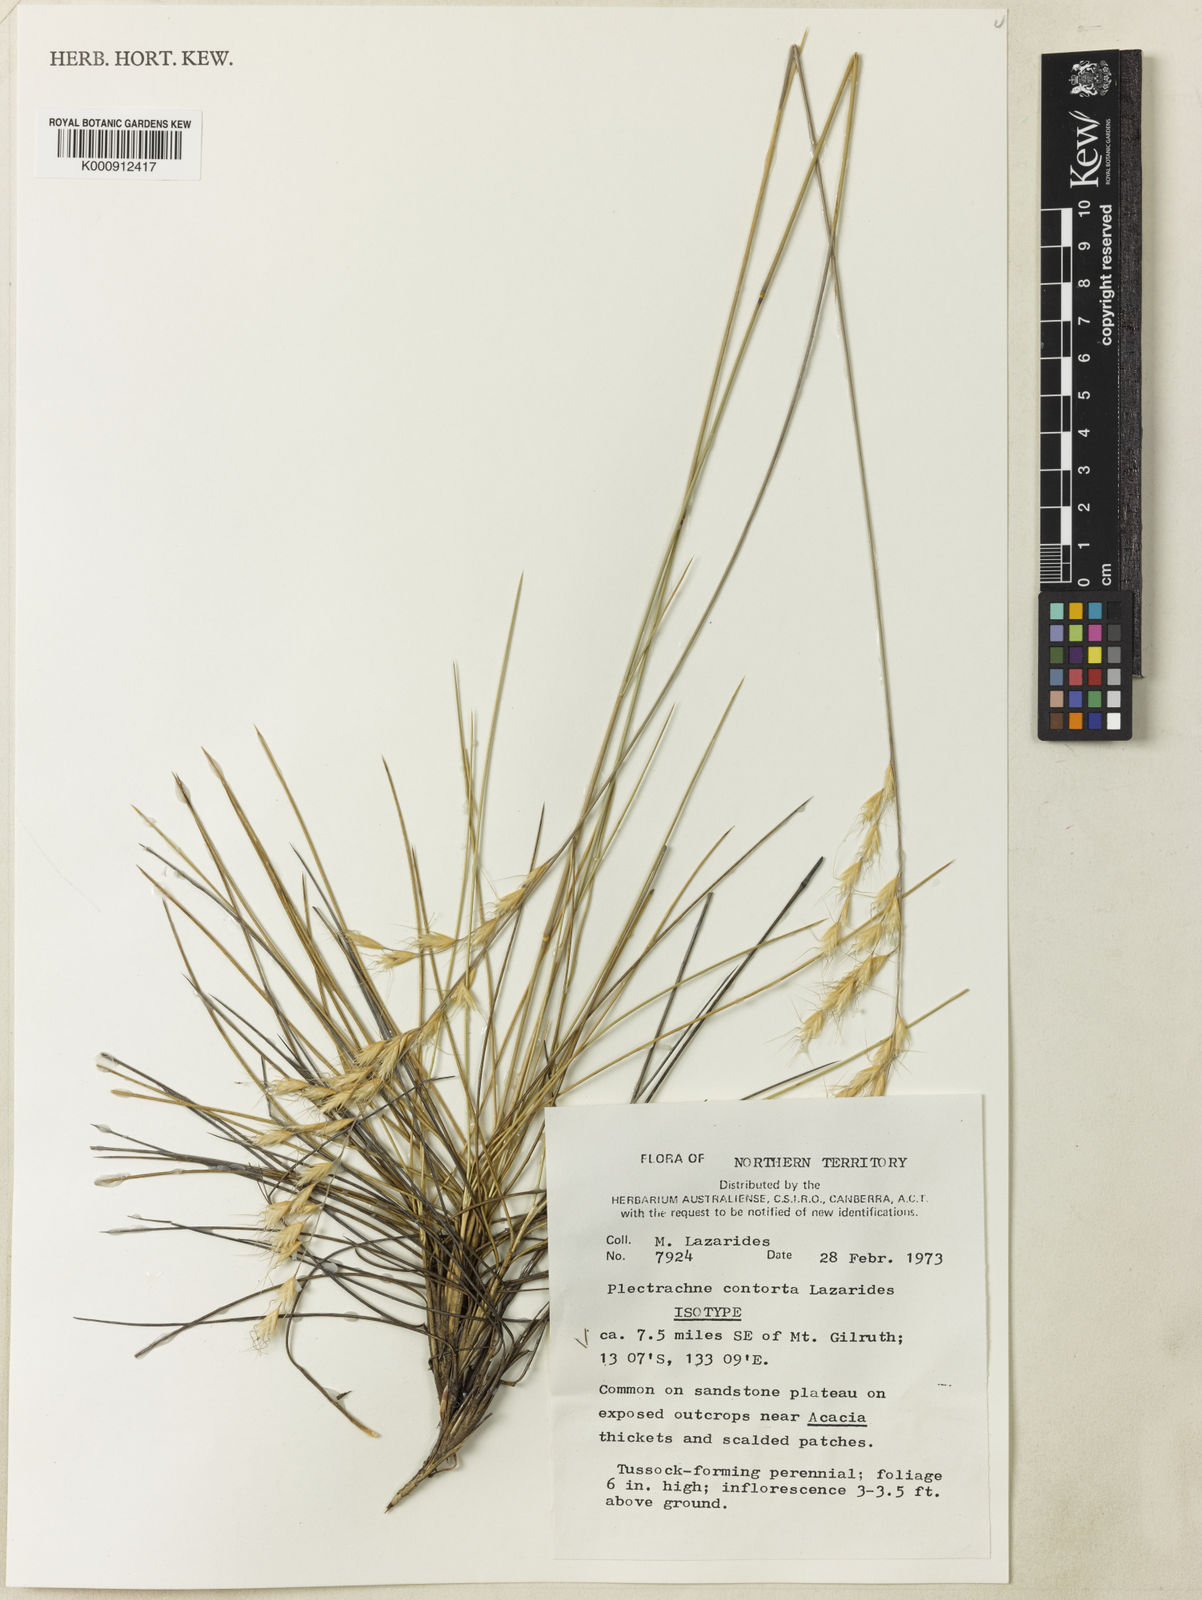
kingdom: Plantae
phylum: Tracheophyta
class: Liliopsida
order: Poales
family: Poaceae
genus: Triodia
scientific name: Triodia contorta
